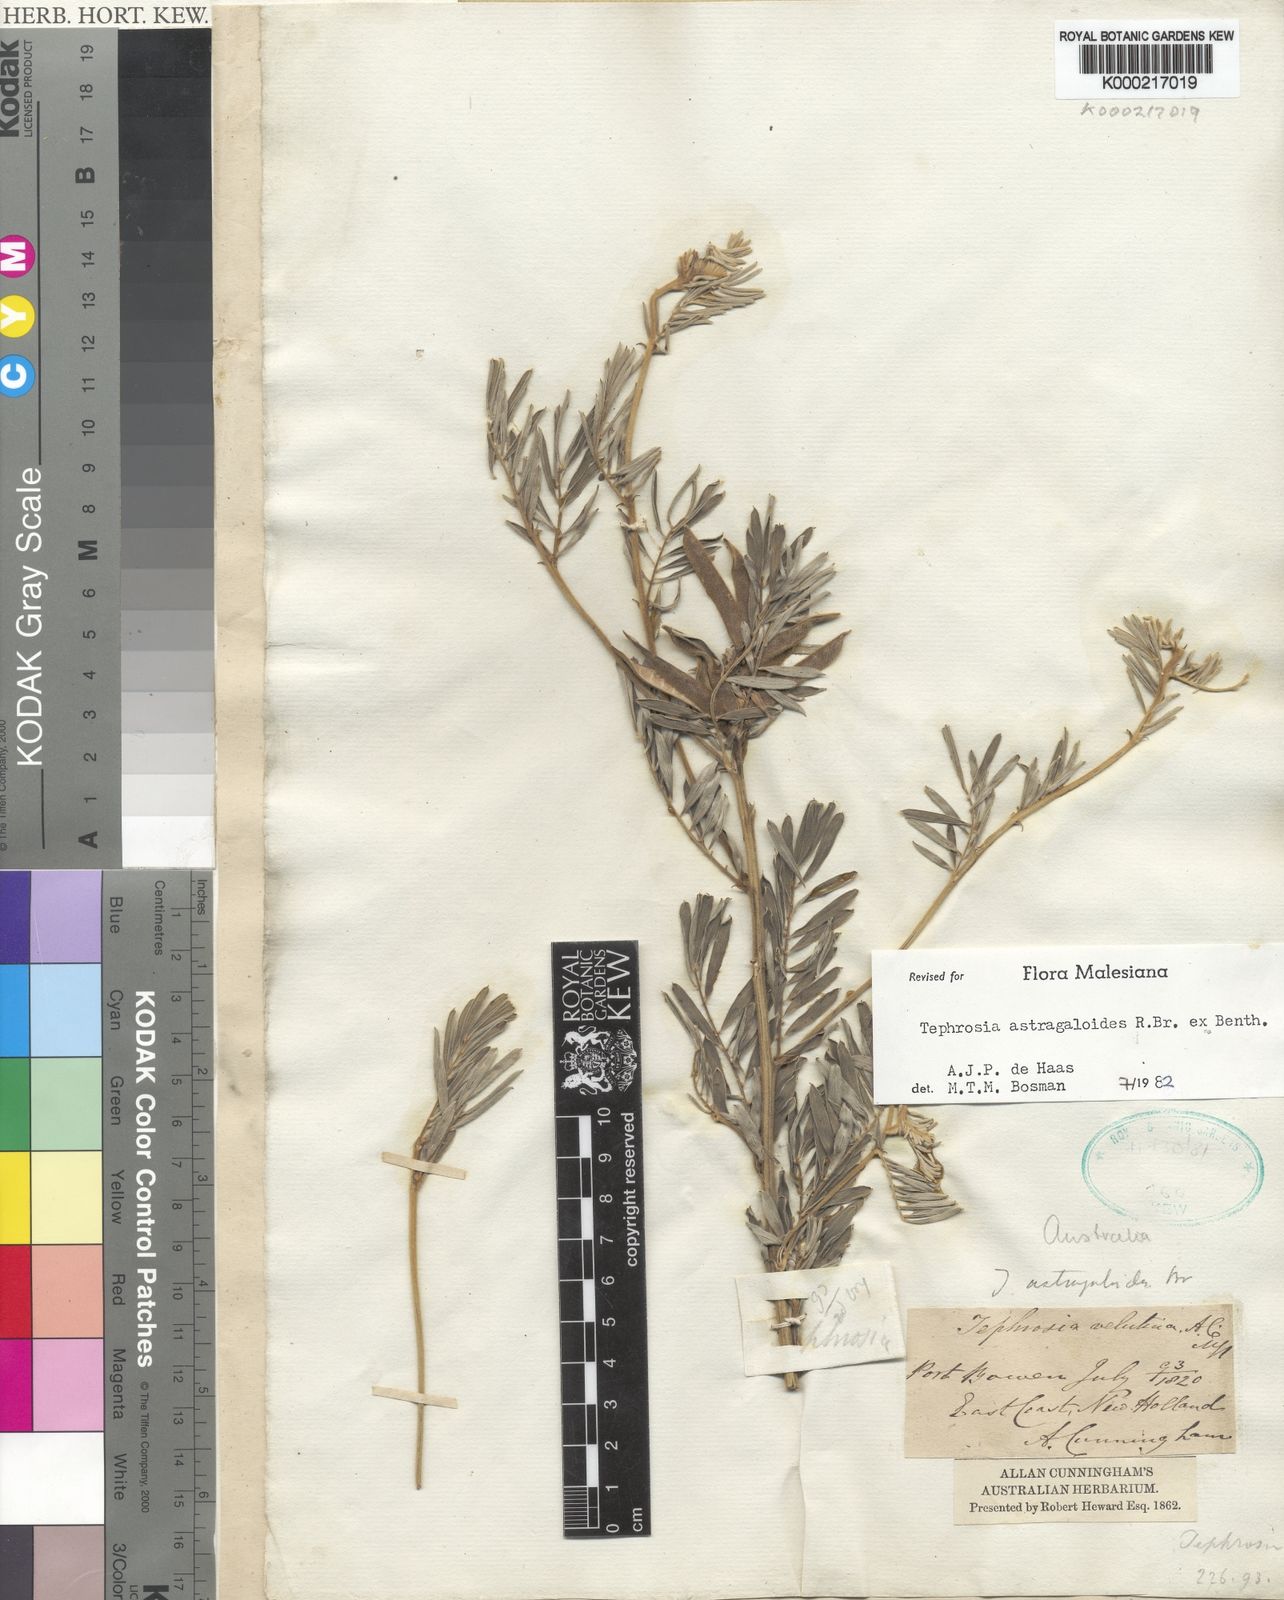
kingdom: Plantae
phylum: Tracheophyta
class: Magnoliopsida
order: Fabales
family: Fabaceae
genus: Tephrosia
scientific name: Tephrosia astragaloides
